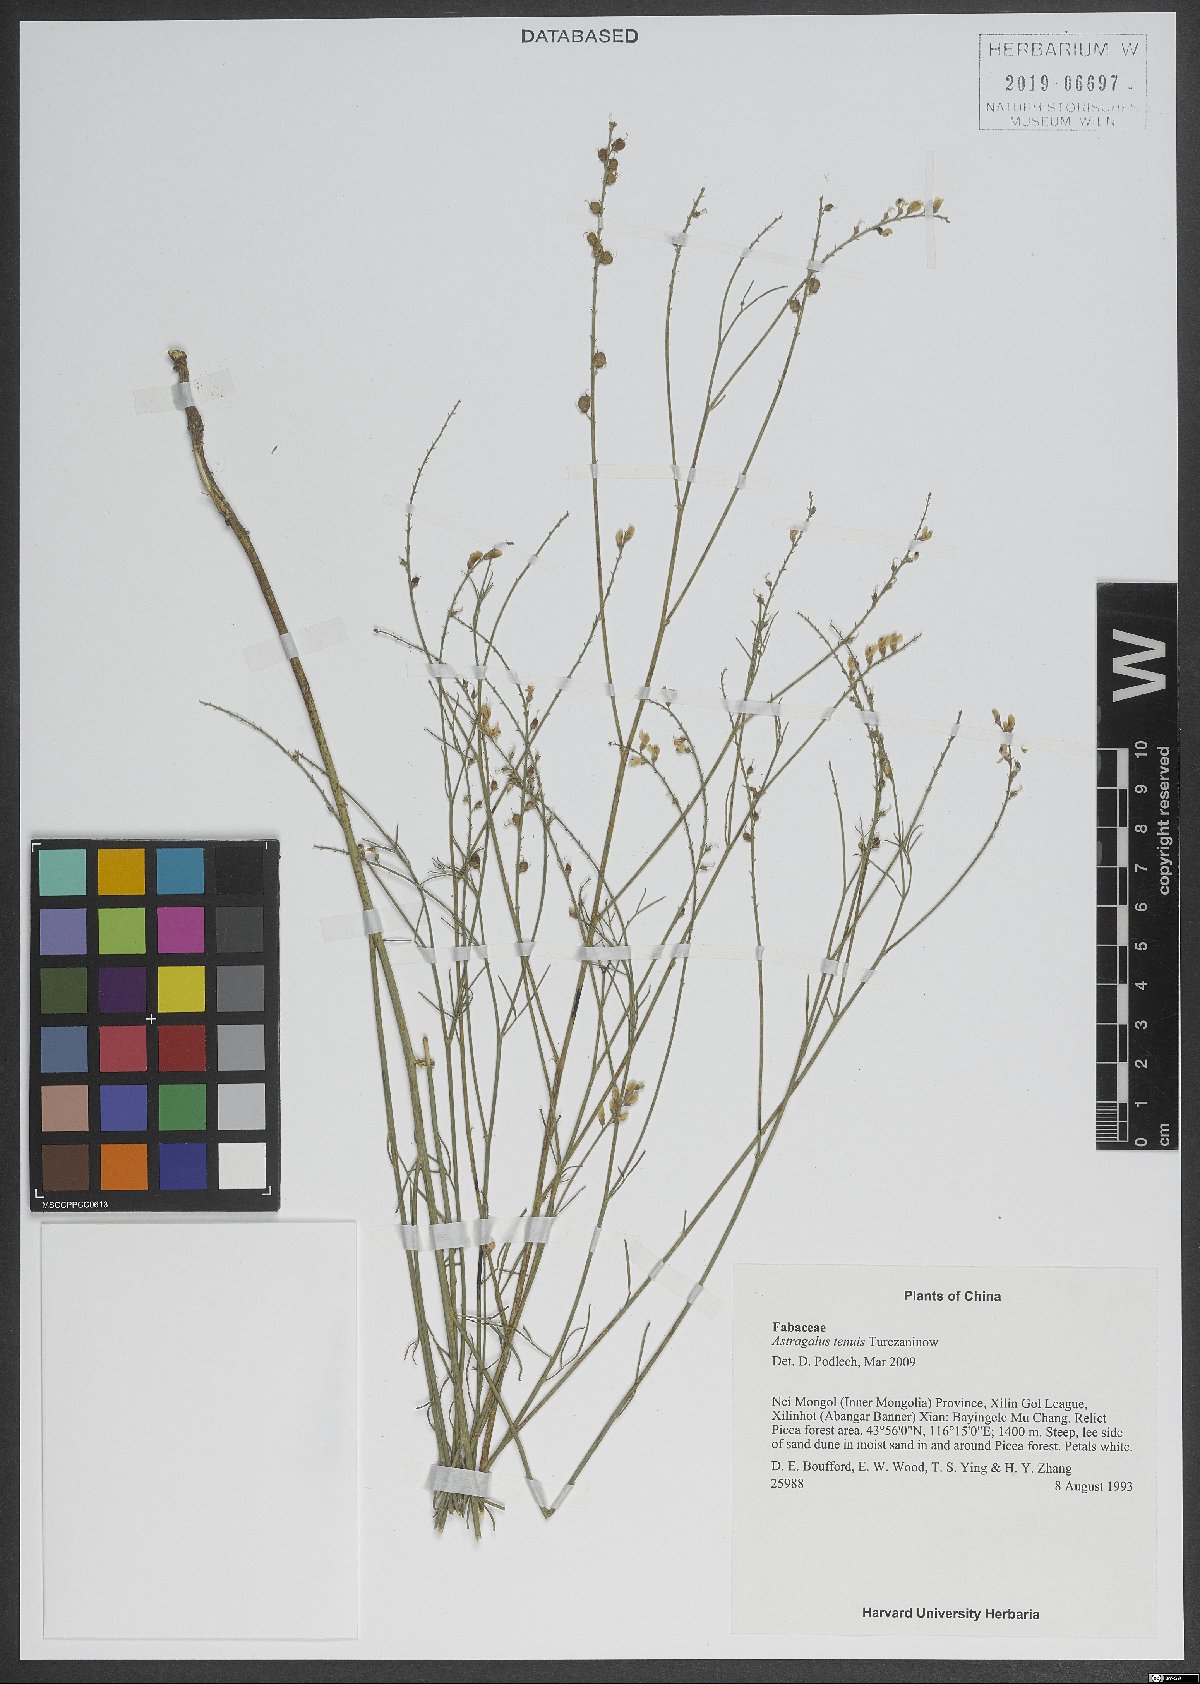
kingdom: Plantae
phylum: Tracheophyta
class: Magnoliopsida
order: Fabales
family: Fabaceae
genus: Astragalus
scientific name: Astragalus tenuis
